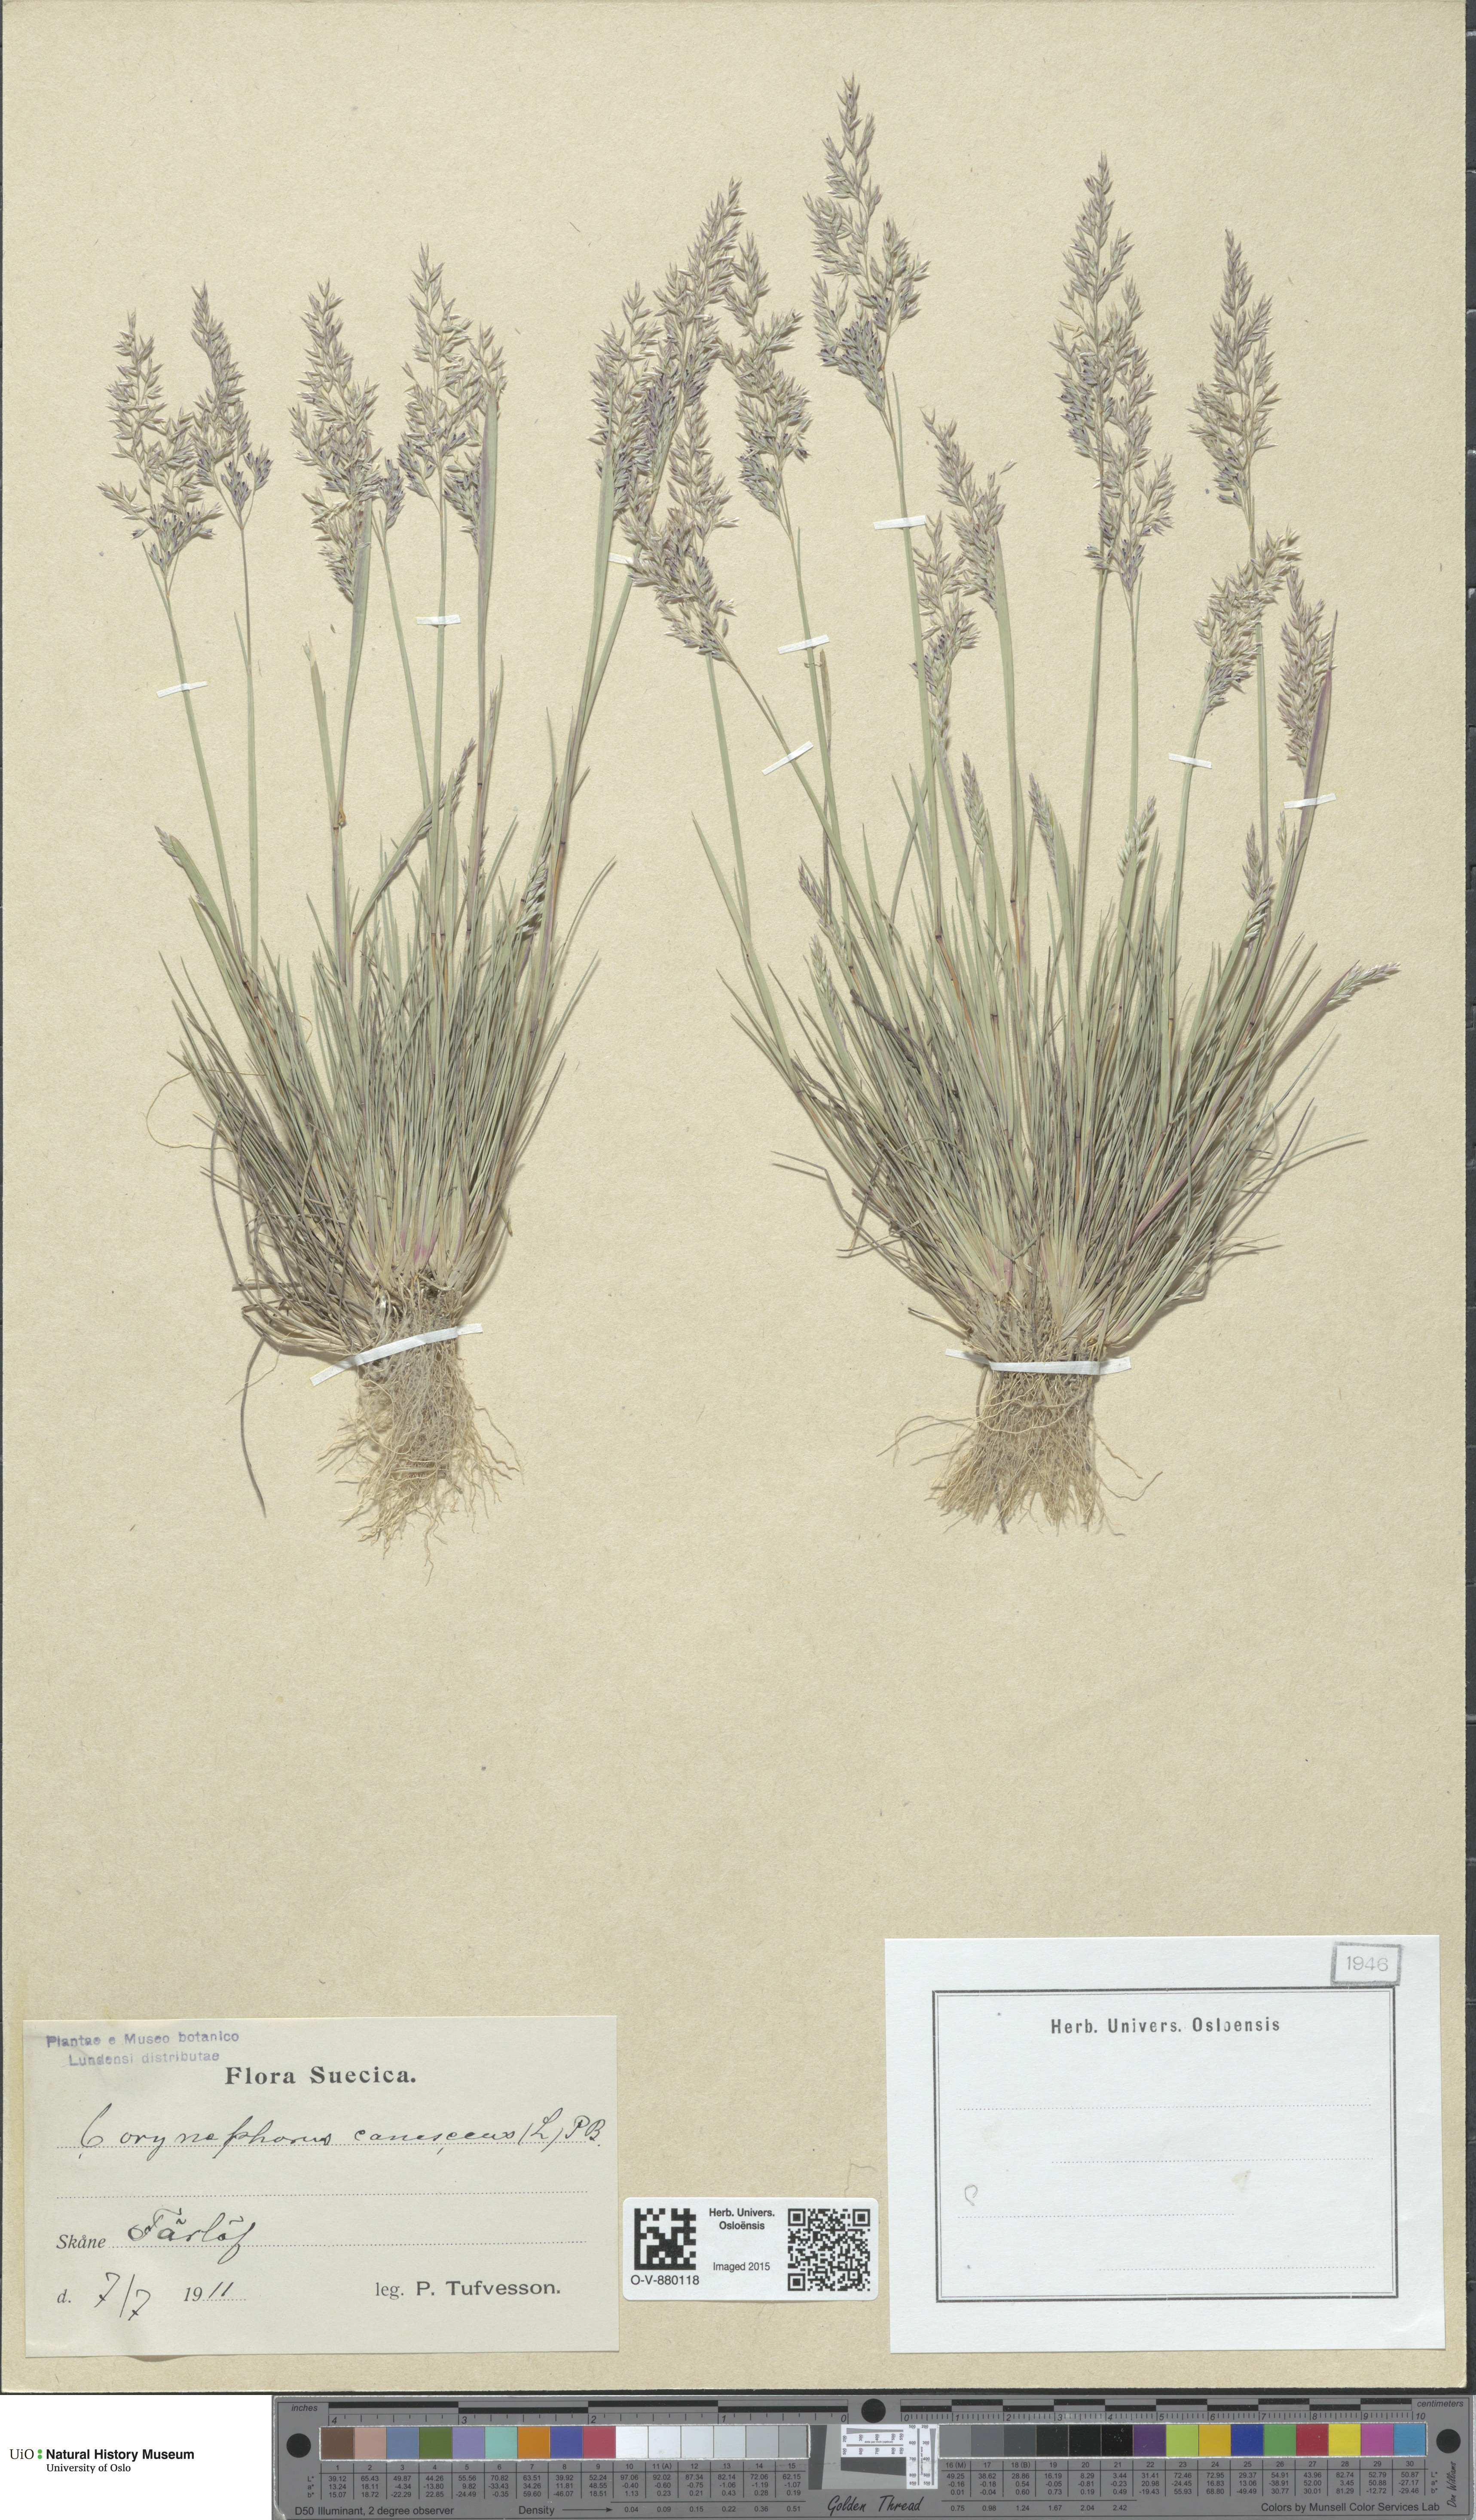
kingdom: Plantae
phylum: Tracheophyta
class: Liliopsida
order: Poales
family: Poaceae
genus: Corynephorus
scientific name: Corynephorus canescens
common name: Grey hair-grass
